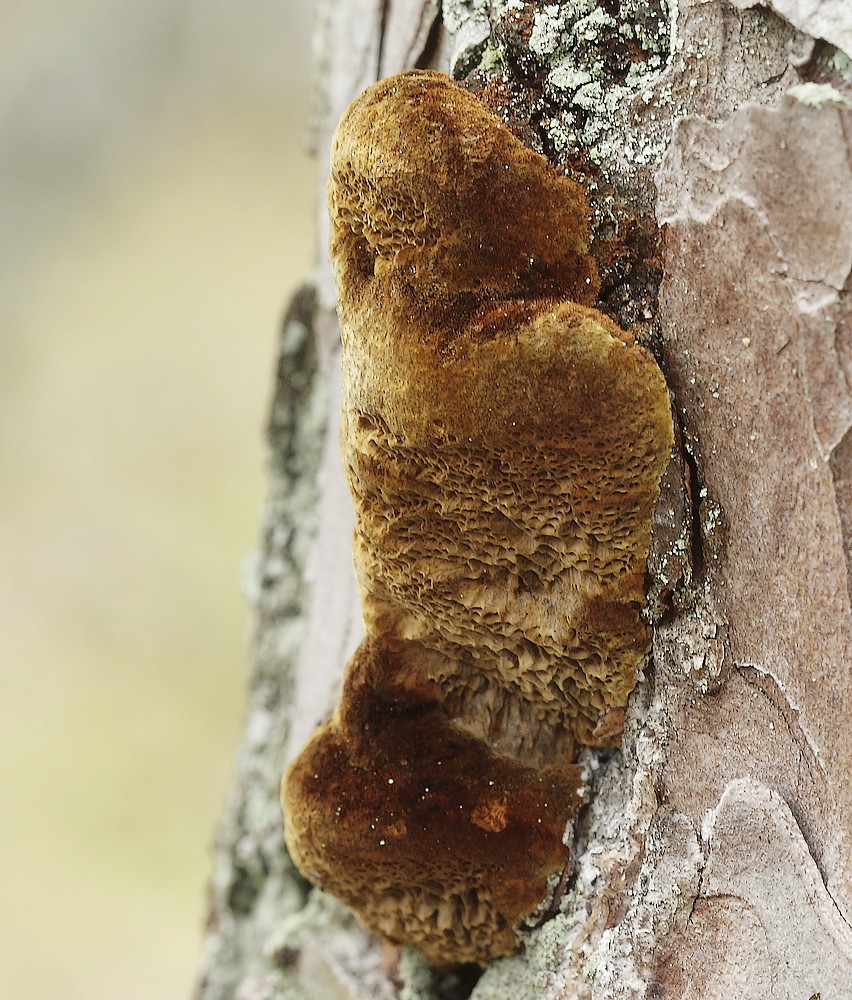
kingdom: Fungi
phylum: Basidiomycota
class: Agaricomycetes
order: Hymenochaetales
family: Hymenochaetaceae
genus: Porodaedalea
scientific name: Porodaedalea pini
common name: fyrre-ildporesvamp
